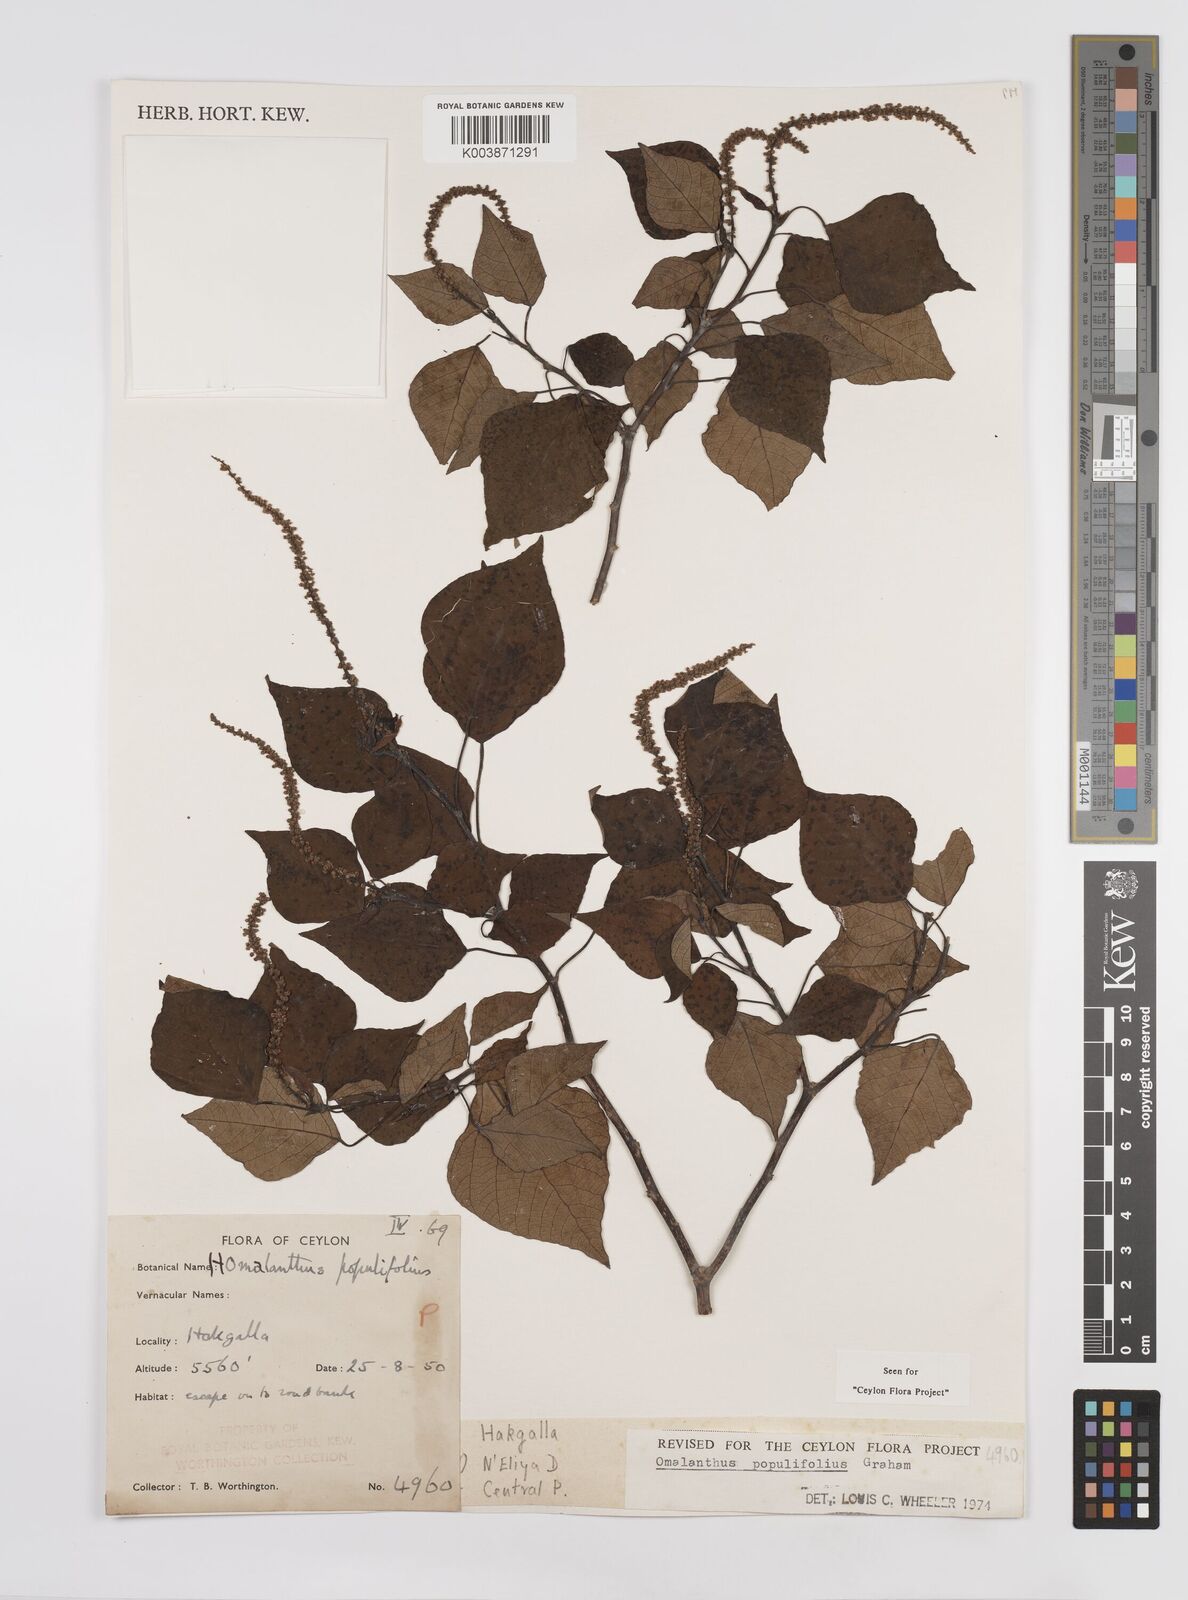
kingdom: Plantae
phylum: Tracheophyta
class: Magnoliopsida
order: Malpighiales
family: Euphorbiaceae
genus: Homalanthus
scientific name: Homalanthus populneus
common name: Spurge
